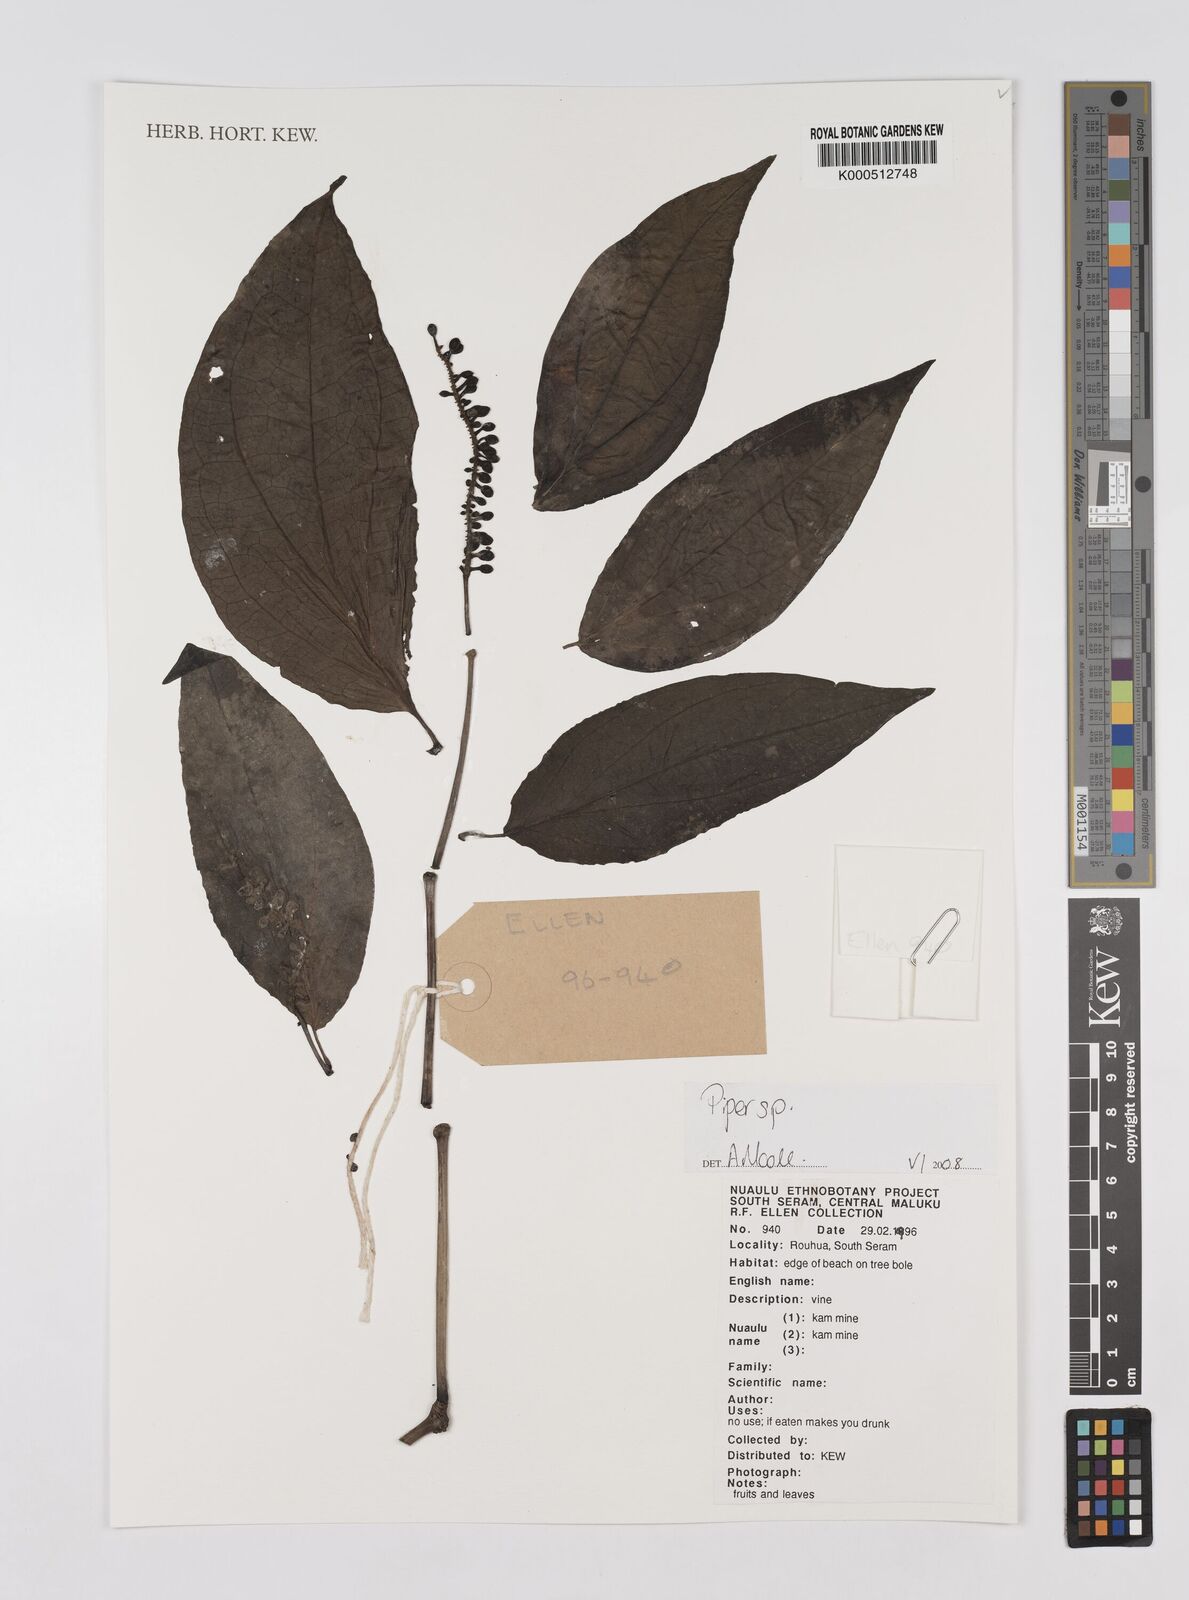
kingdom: Plantae
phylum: Tracheophyta
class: Magnoliopsida
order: Piperales
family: Piperaceae
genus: Piper
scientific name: Piper
